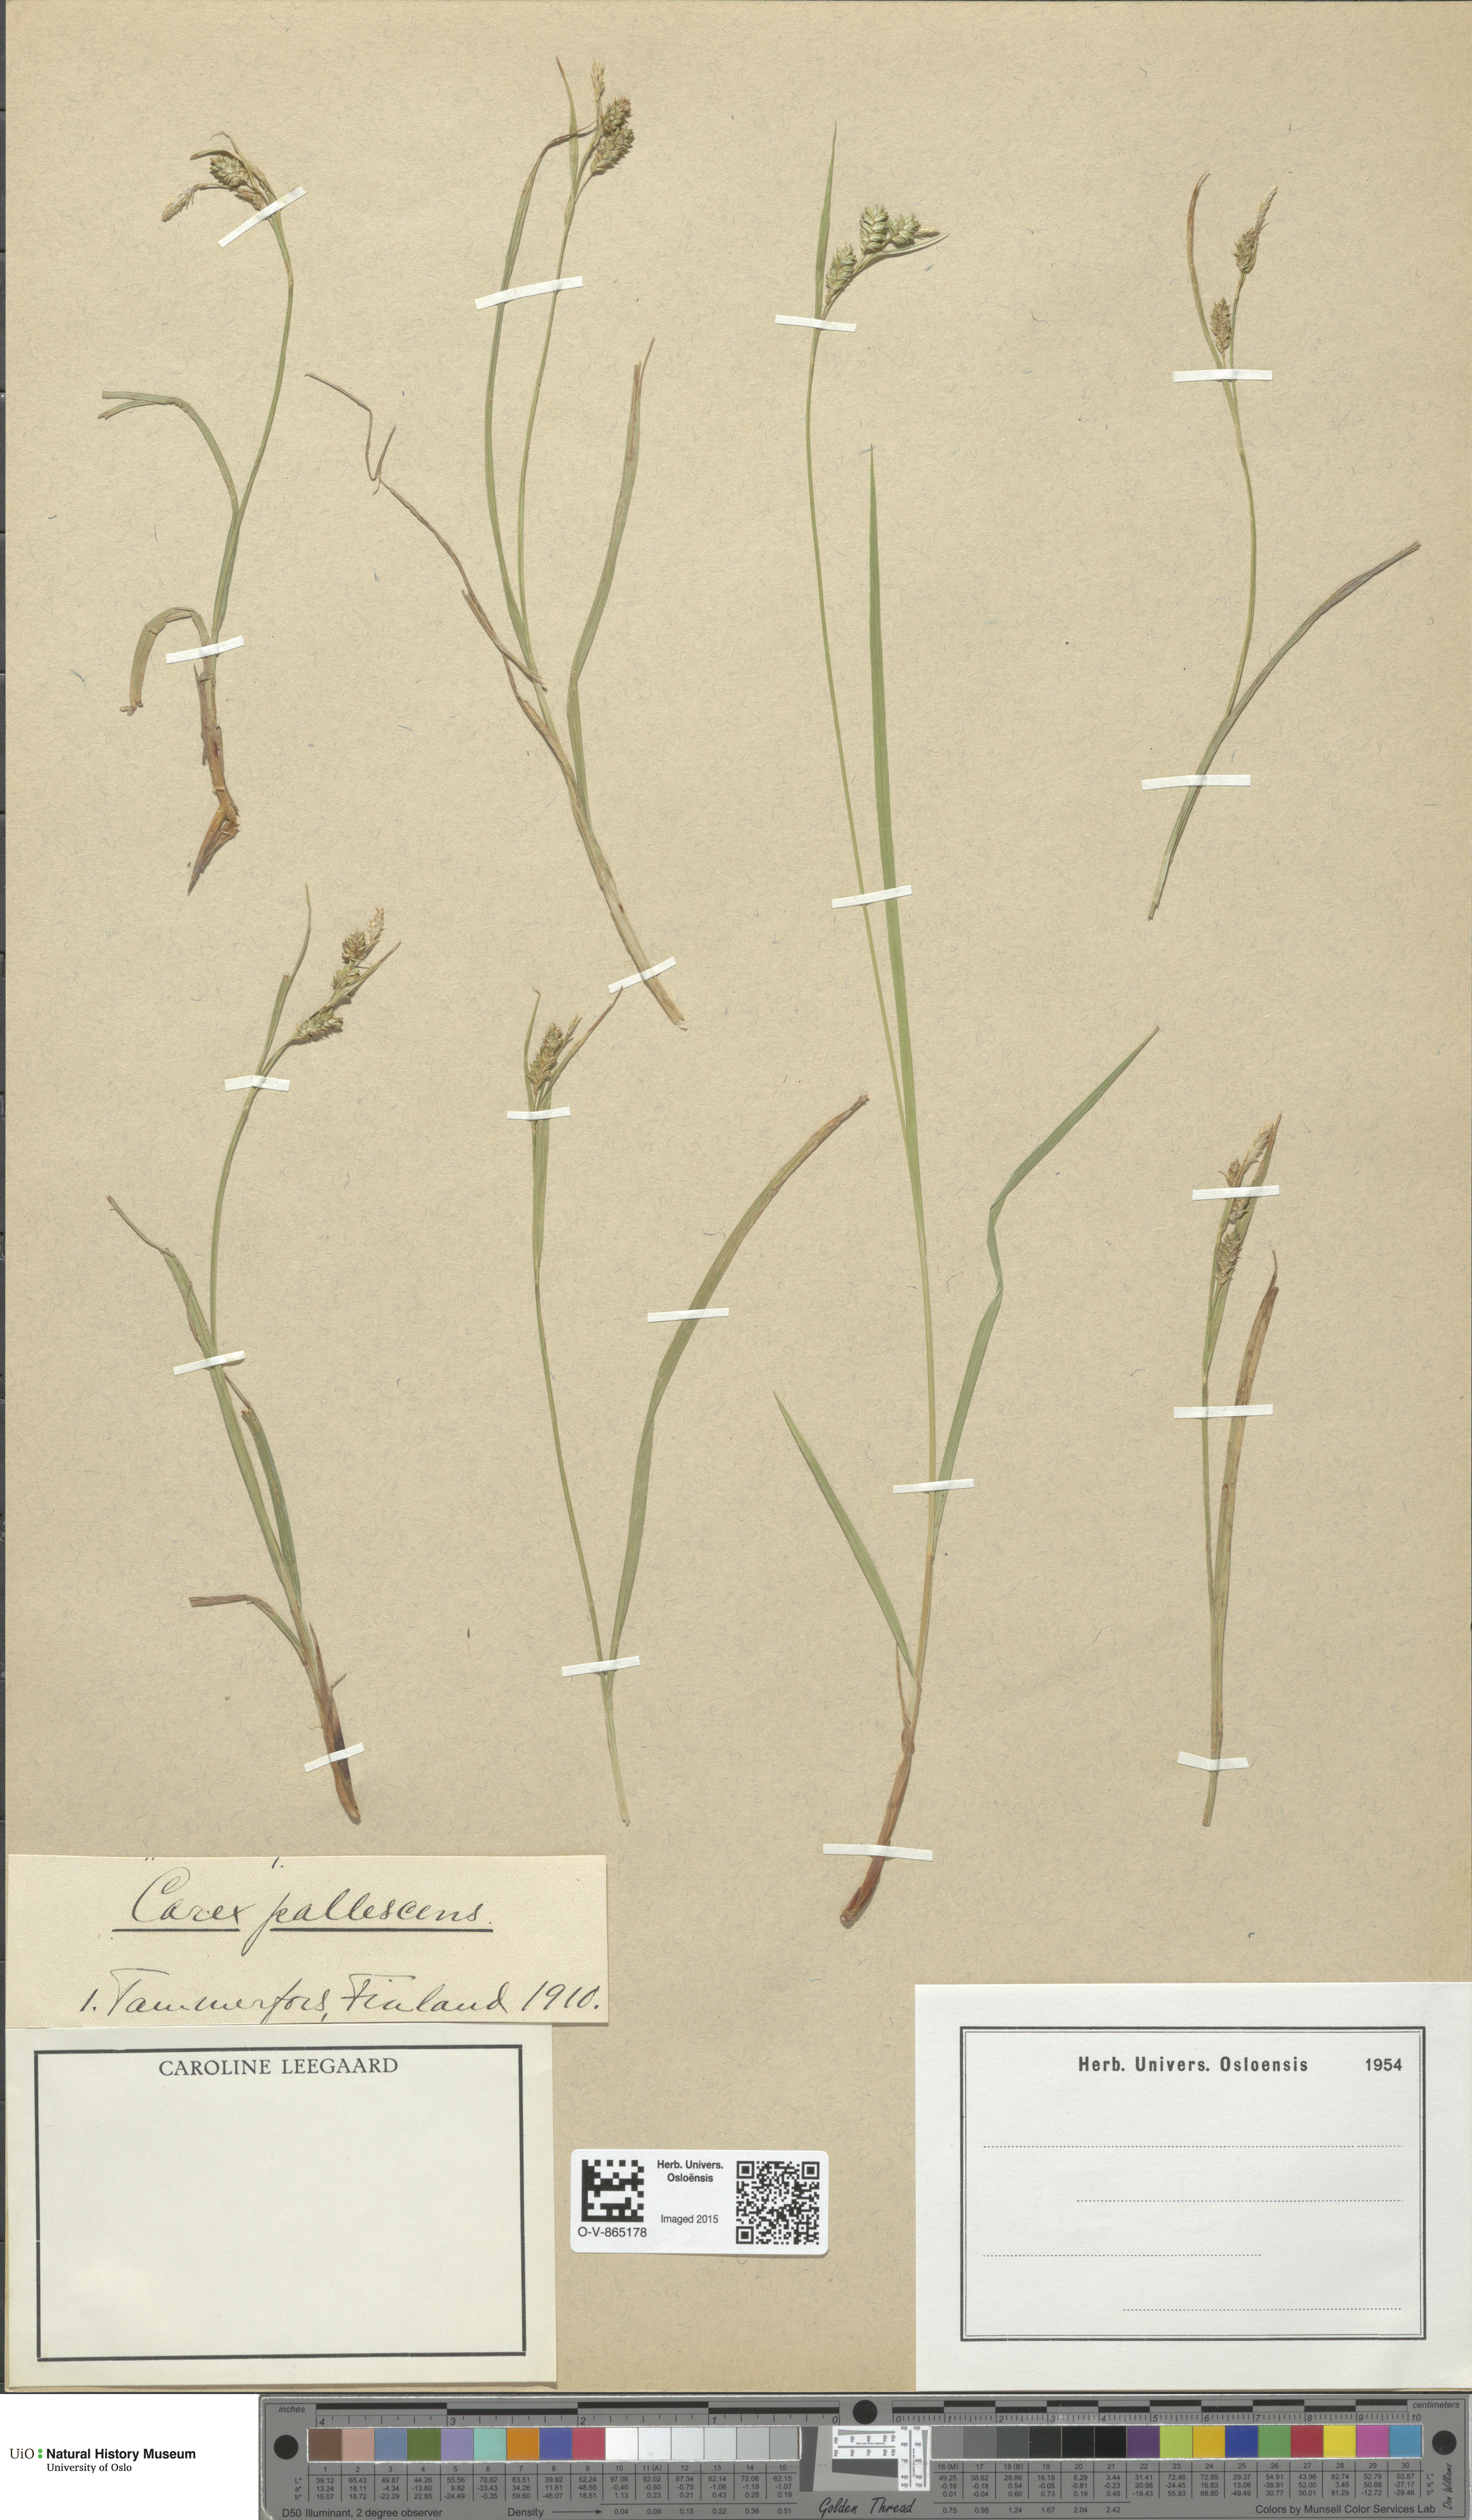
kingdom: Plantae
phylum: Tracheophyta
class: Liliopsida
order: Poales
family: Cyperaceae
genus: Carex
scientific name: Carex pallescens
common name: Pale sedge
